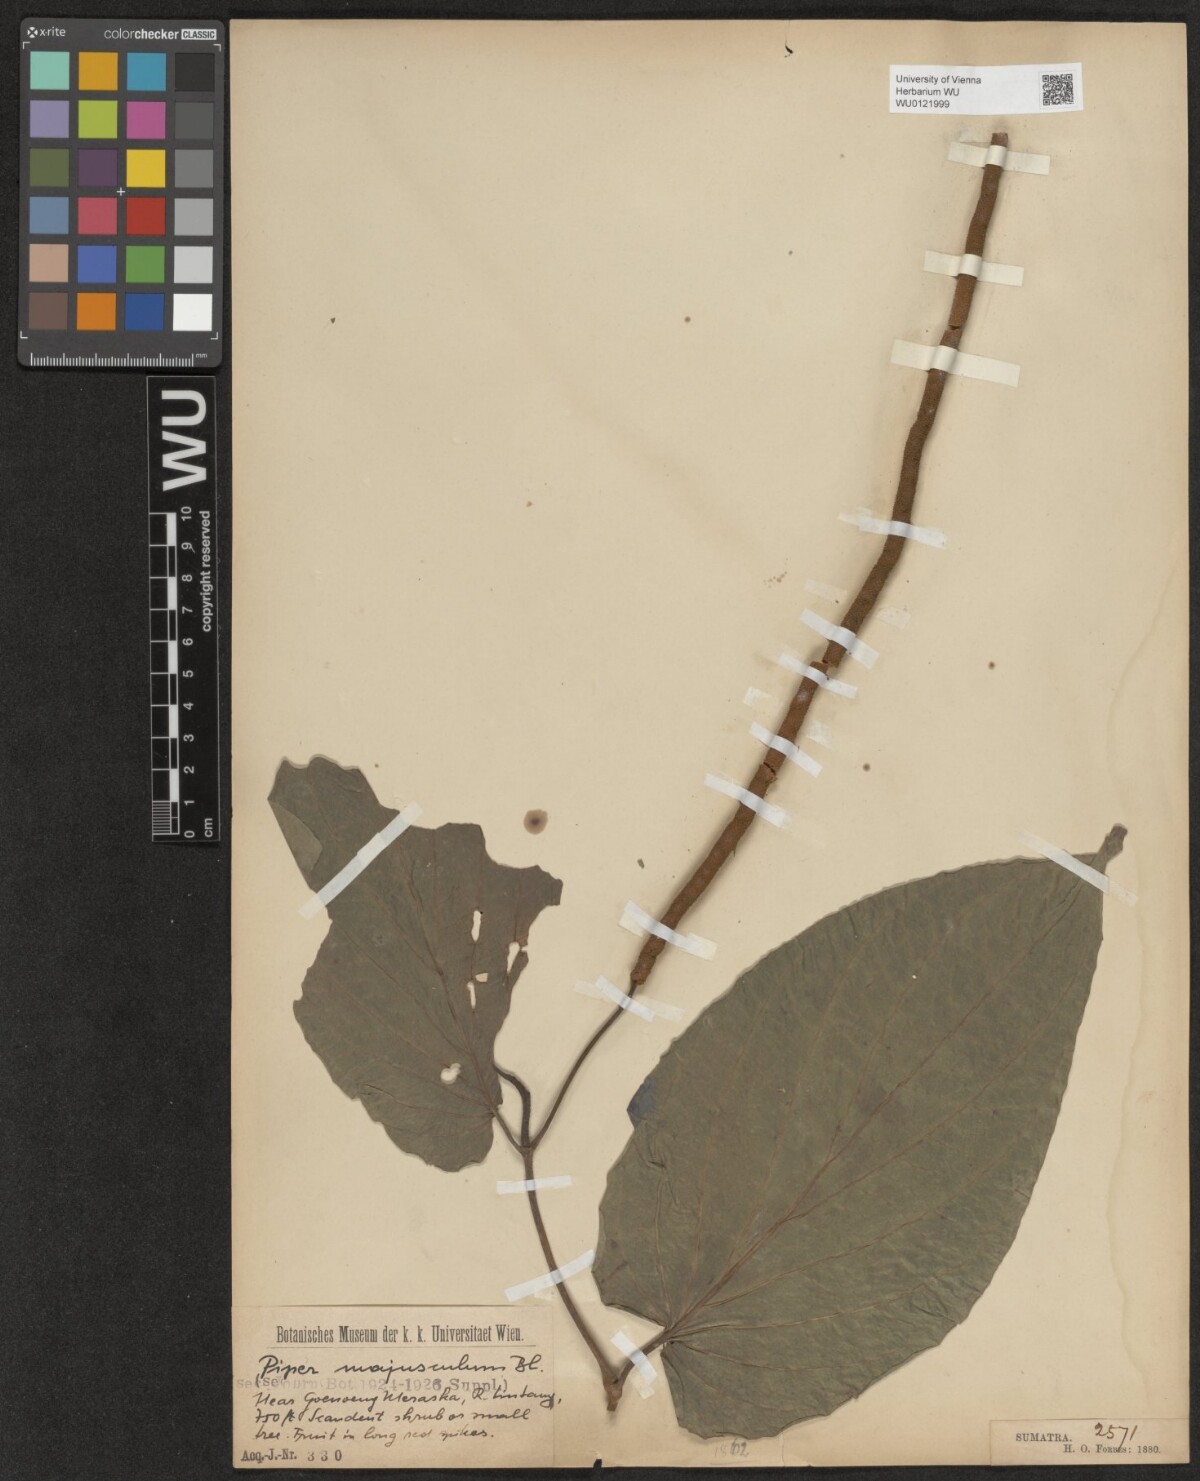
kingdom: Plantae
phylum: Tracheophyta
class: Magnoliopsida
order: Piperales
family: Piperaceae
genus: Piper
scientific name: Piper majusculum
